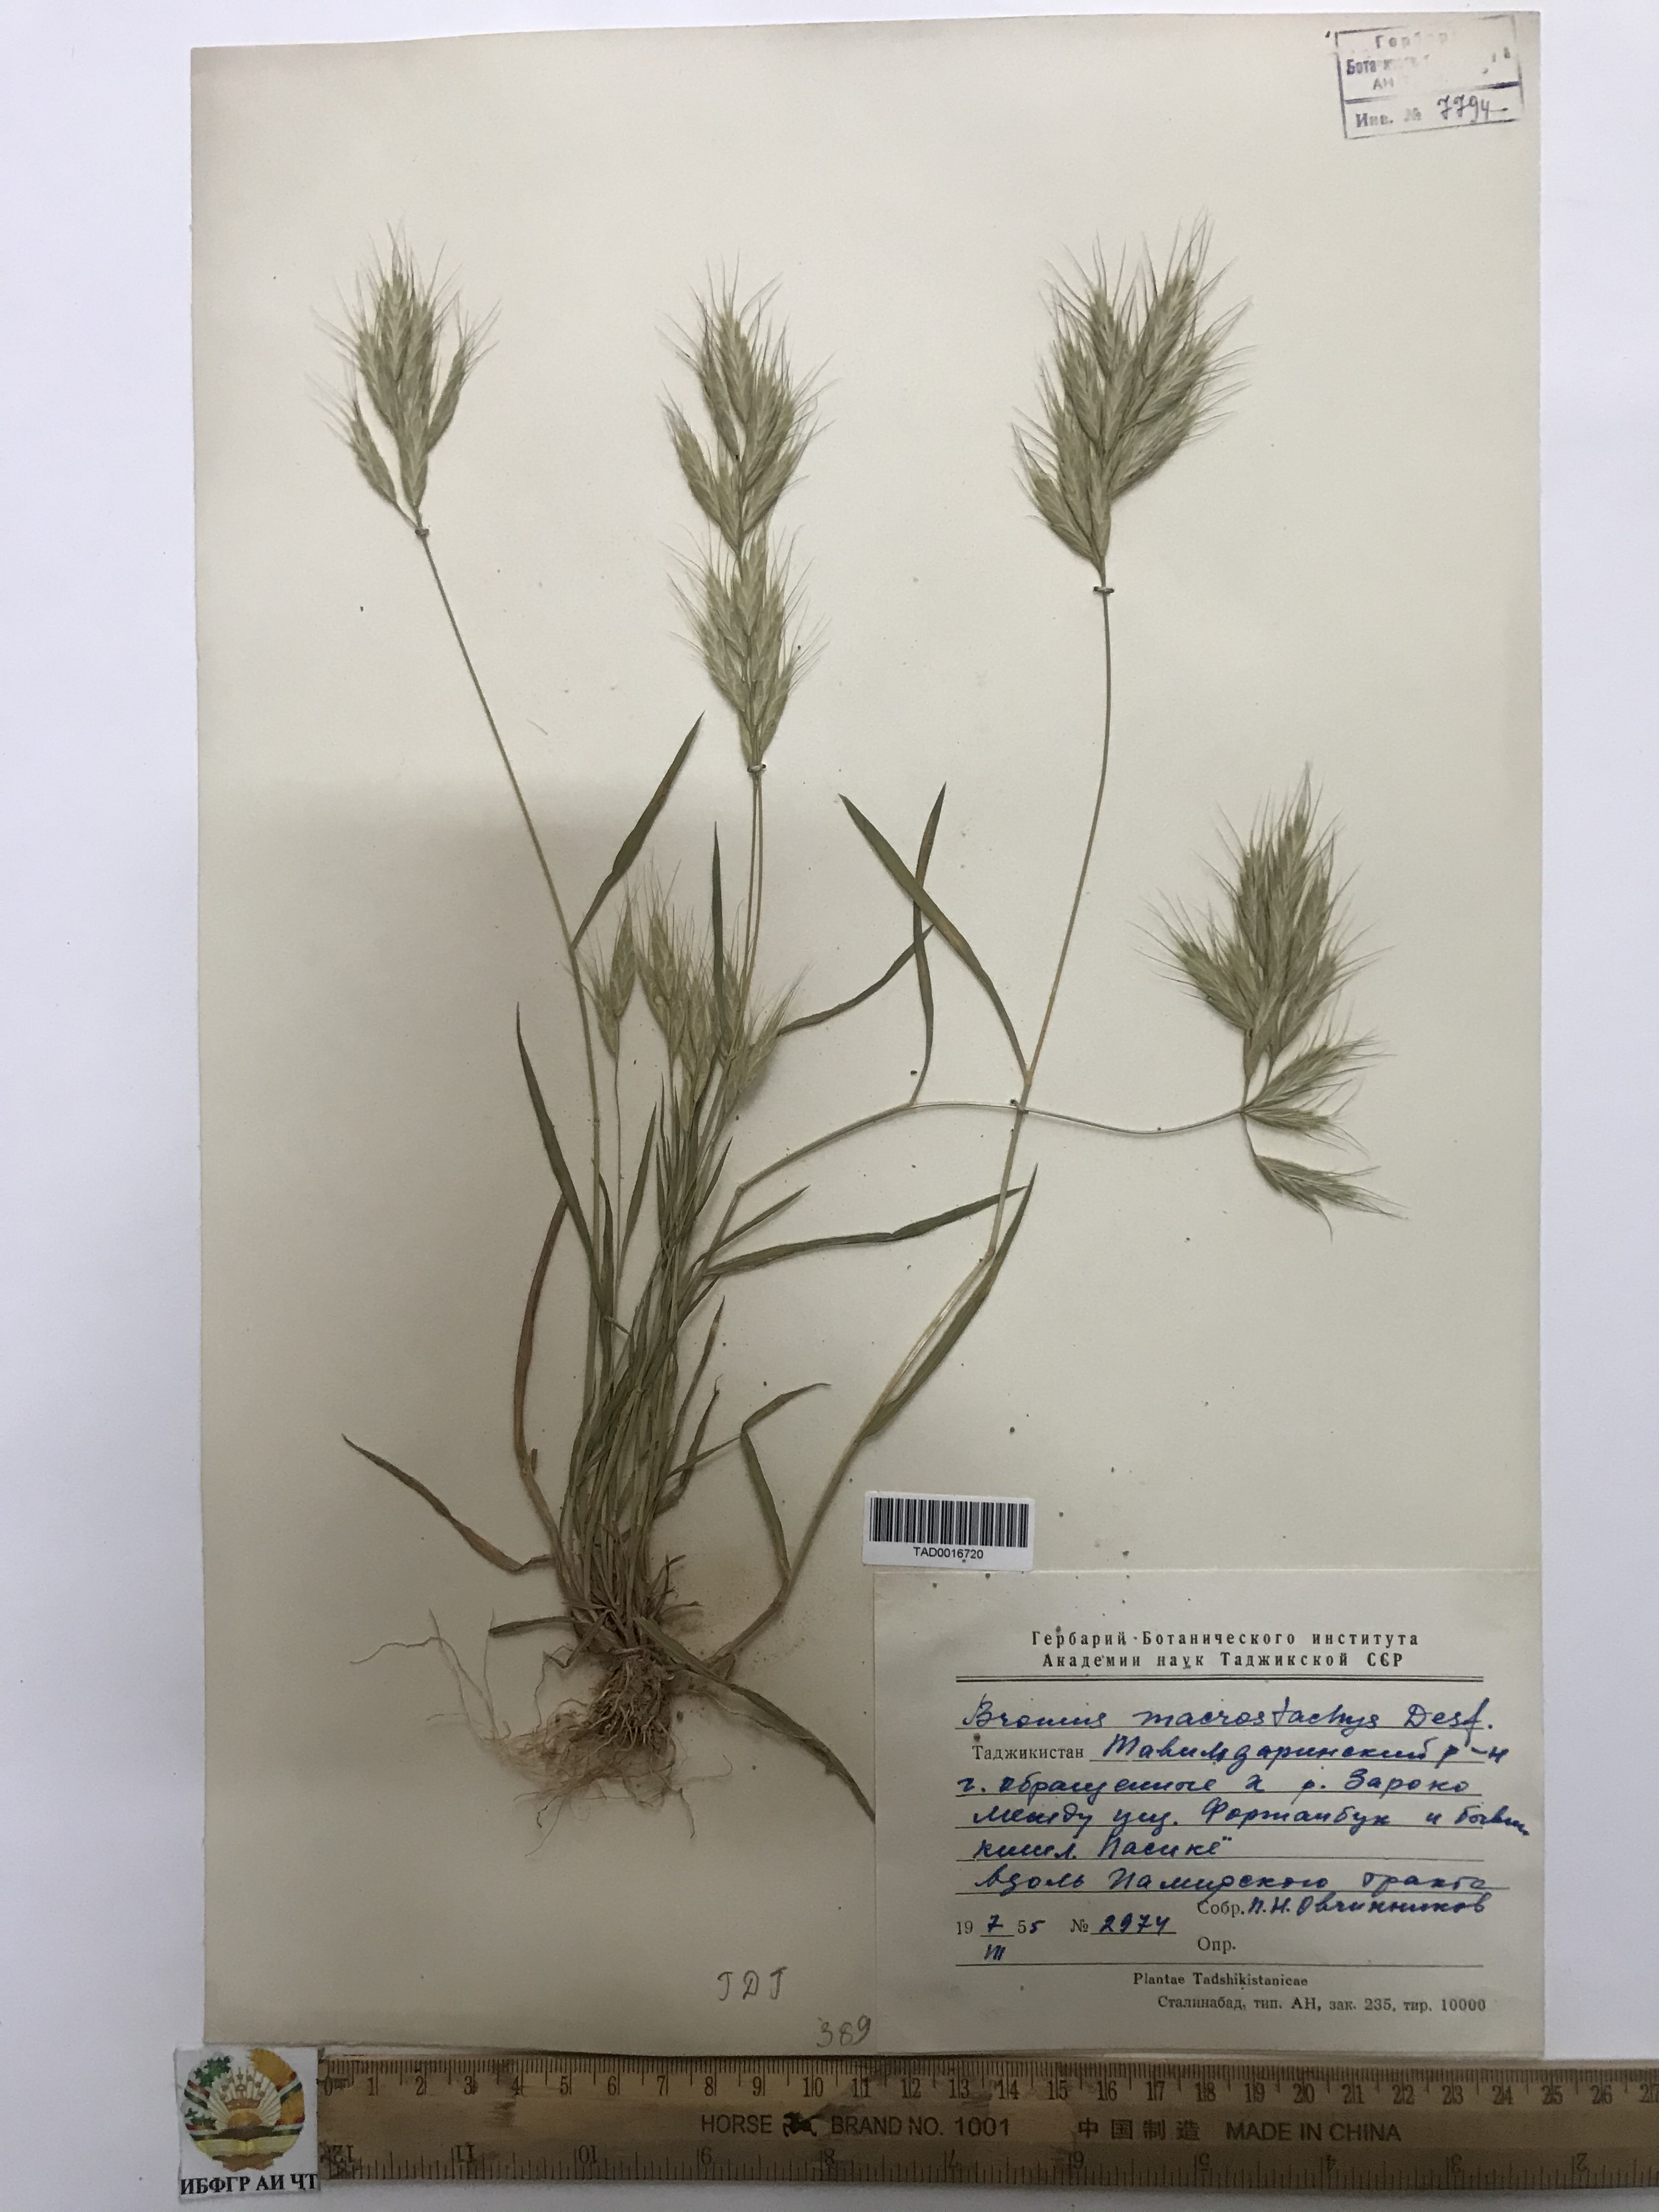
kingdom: Plantae
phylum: Tracheophyta
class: Liliopsida
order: Poales
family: Poaceae
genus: Bromus
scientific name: Bromus lanceolatus
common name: Mediterranean brome
